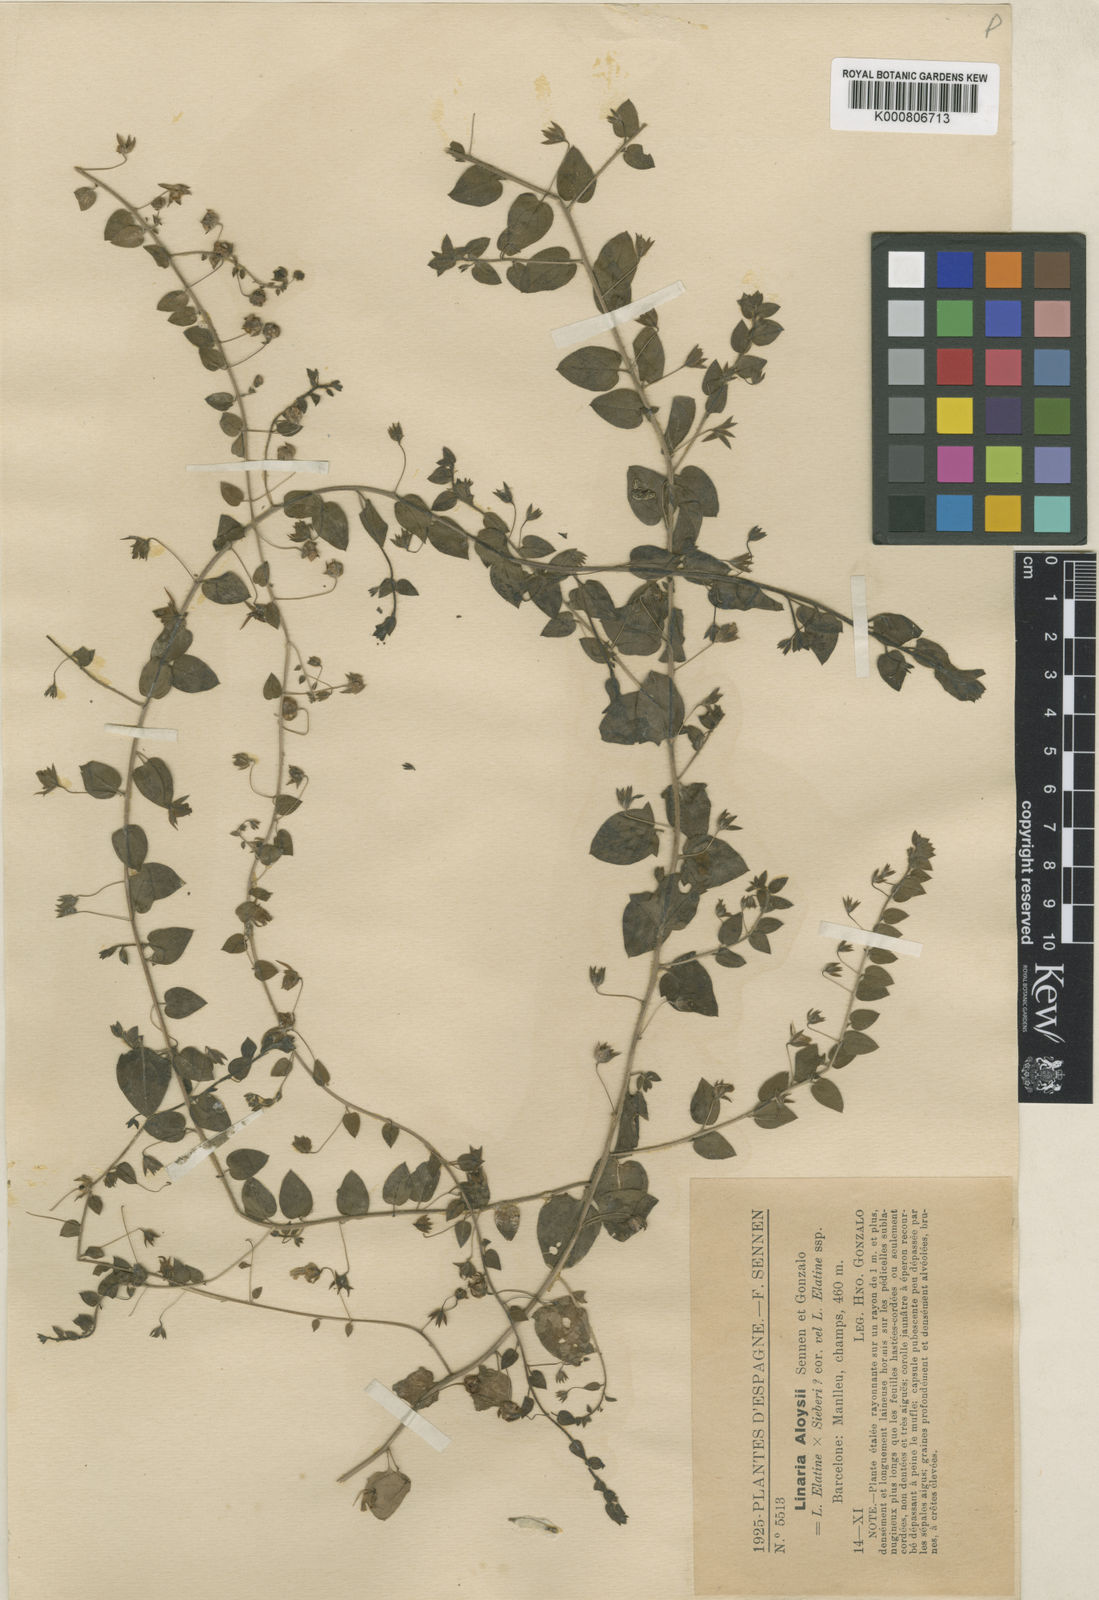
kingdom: Plantae
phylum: Tracheophyta
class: Magnoliopsida
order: Lamiales
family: Plantaginaceae
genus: Kickxia
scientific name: Kickxia elatine
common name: Sharp-leaved fluellen
